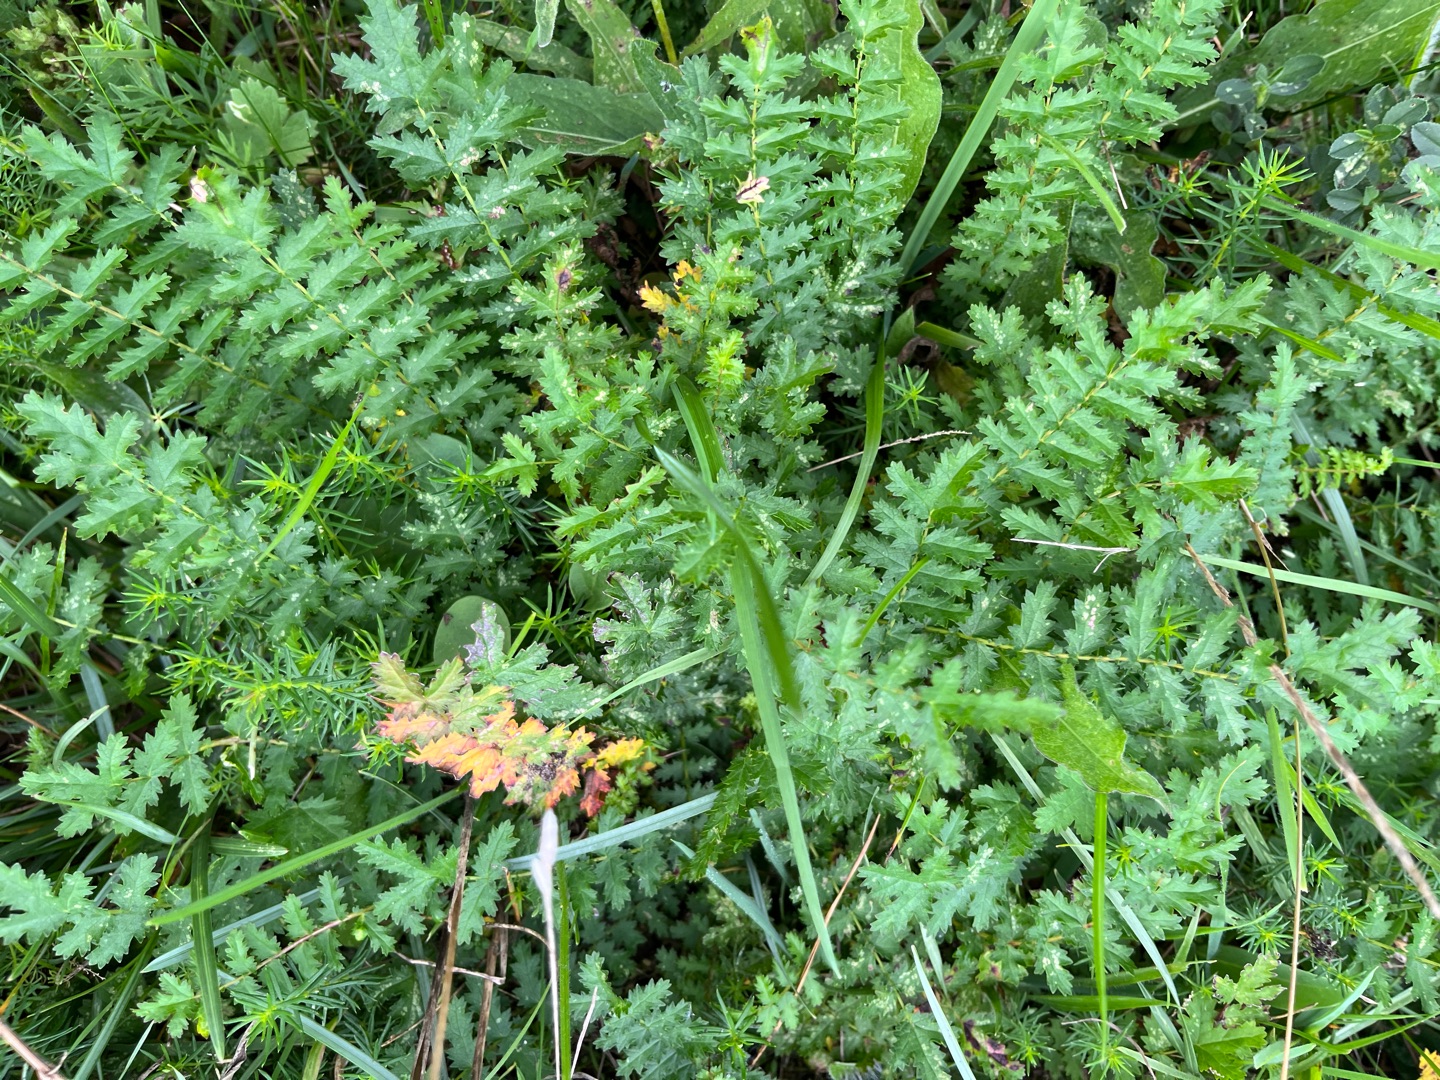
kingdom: Plantae
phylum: Tracheophyta
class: Magnoliopsida
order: Rosales
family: Rosaceae
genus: Filipendula
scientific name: Filipendula vulgaris
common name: Knoldet mjødurt
